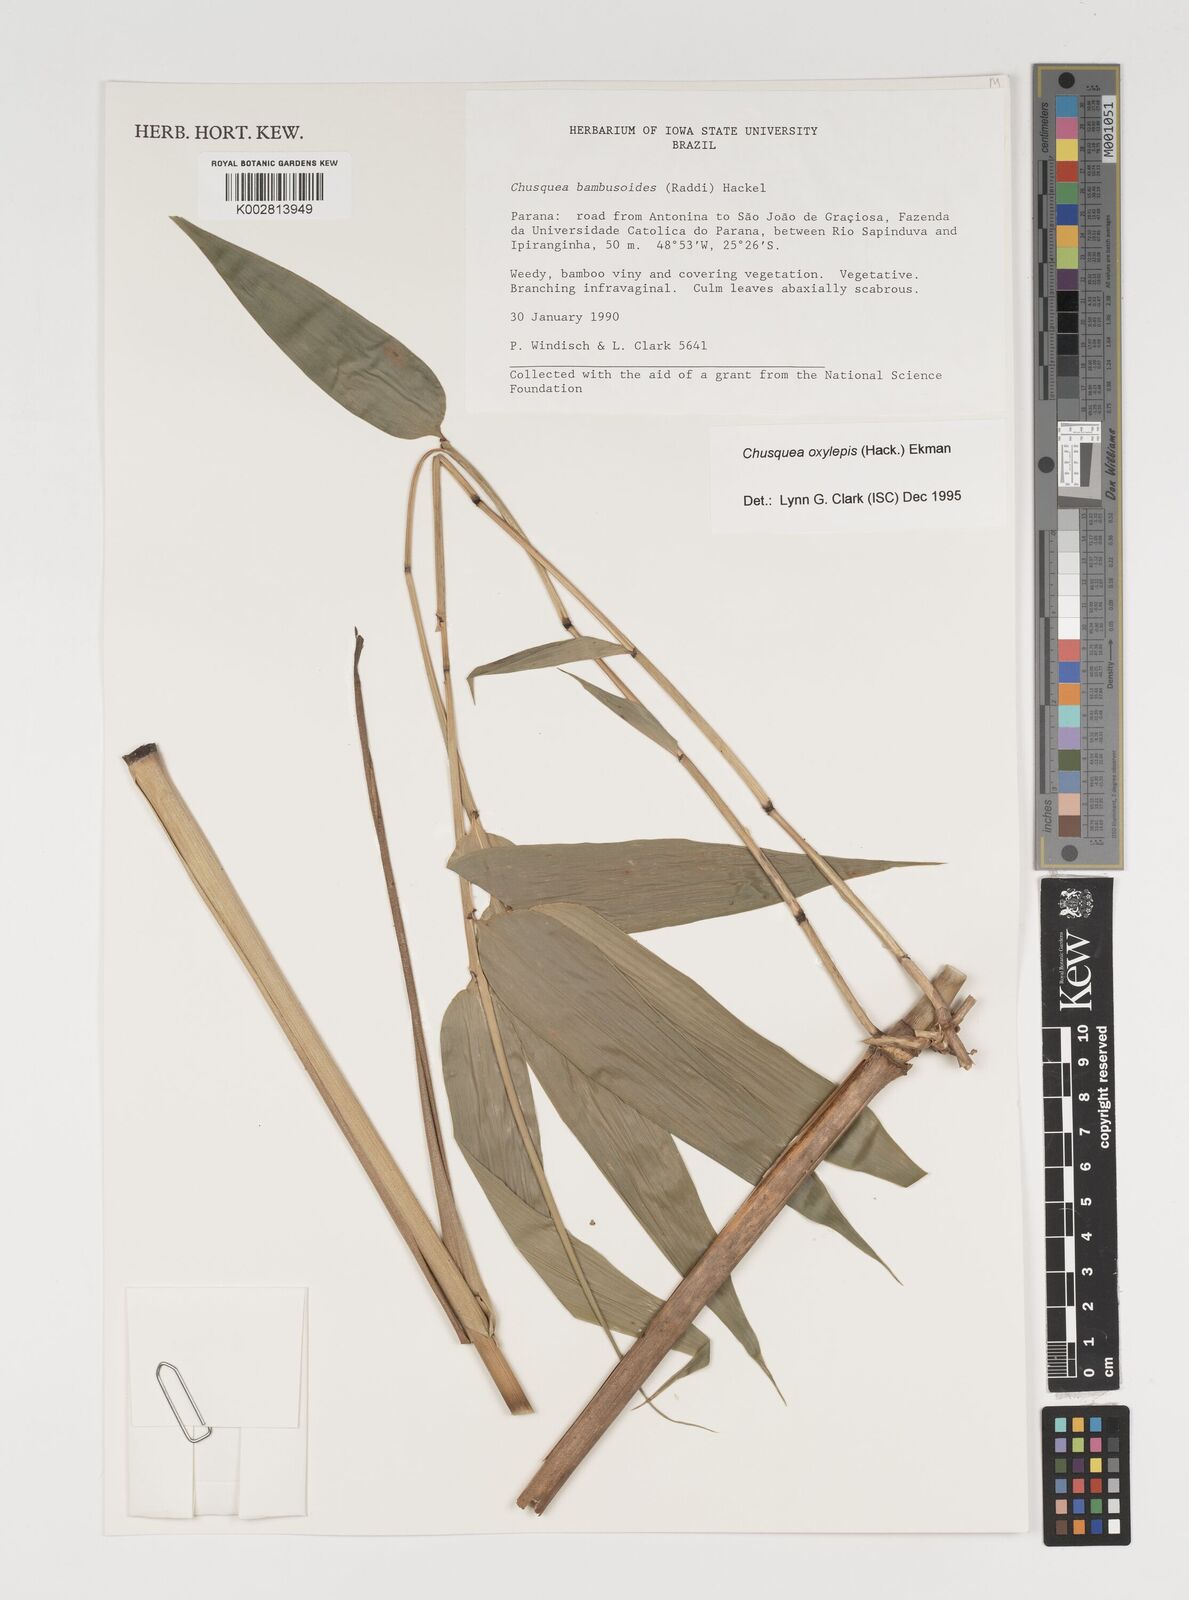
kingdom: Plantae
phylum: Tracheophyta
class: Liliopsida
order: Poales
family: Poaceae
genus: Chusquea
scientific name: Chusquea oxylepis
